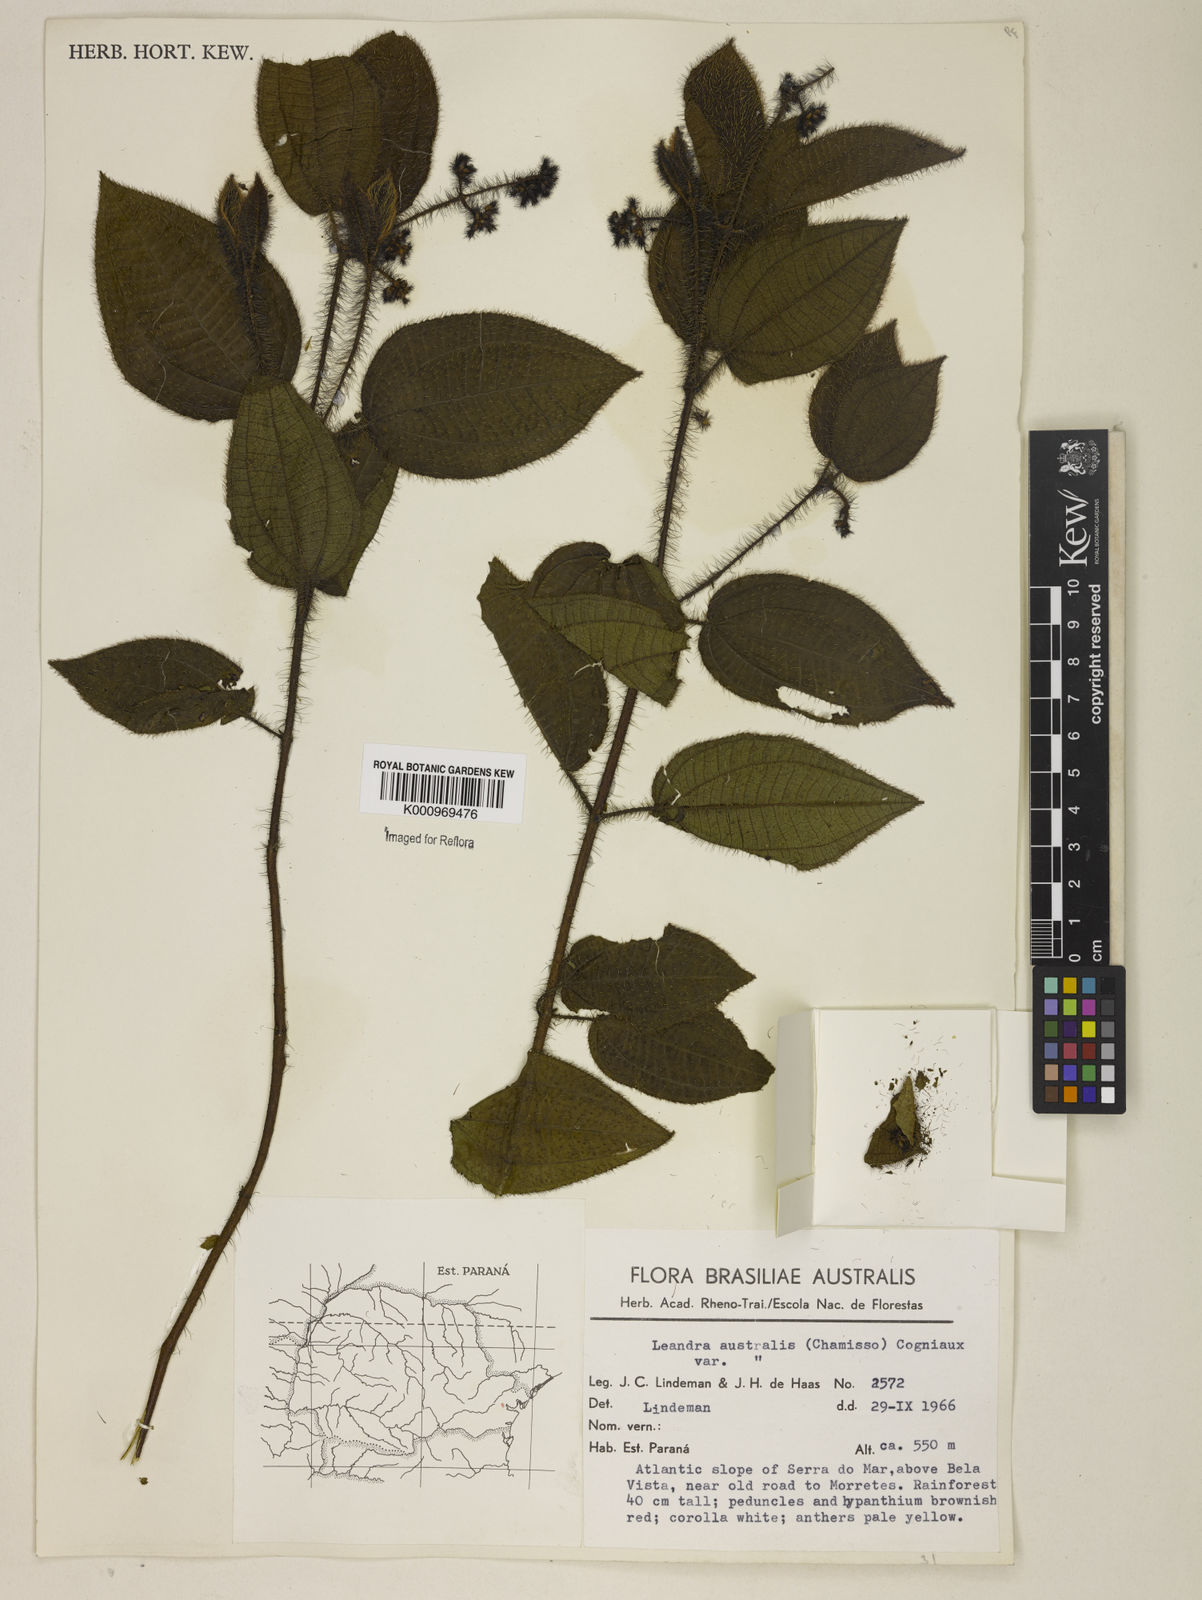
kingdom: Plantae
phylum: Tracheophyta
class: Magnoliopsida
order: Myrtales
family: Melastomataceae
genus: Miconia
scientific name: Miconia australis
